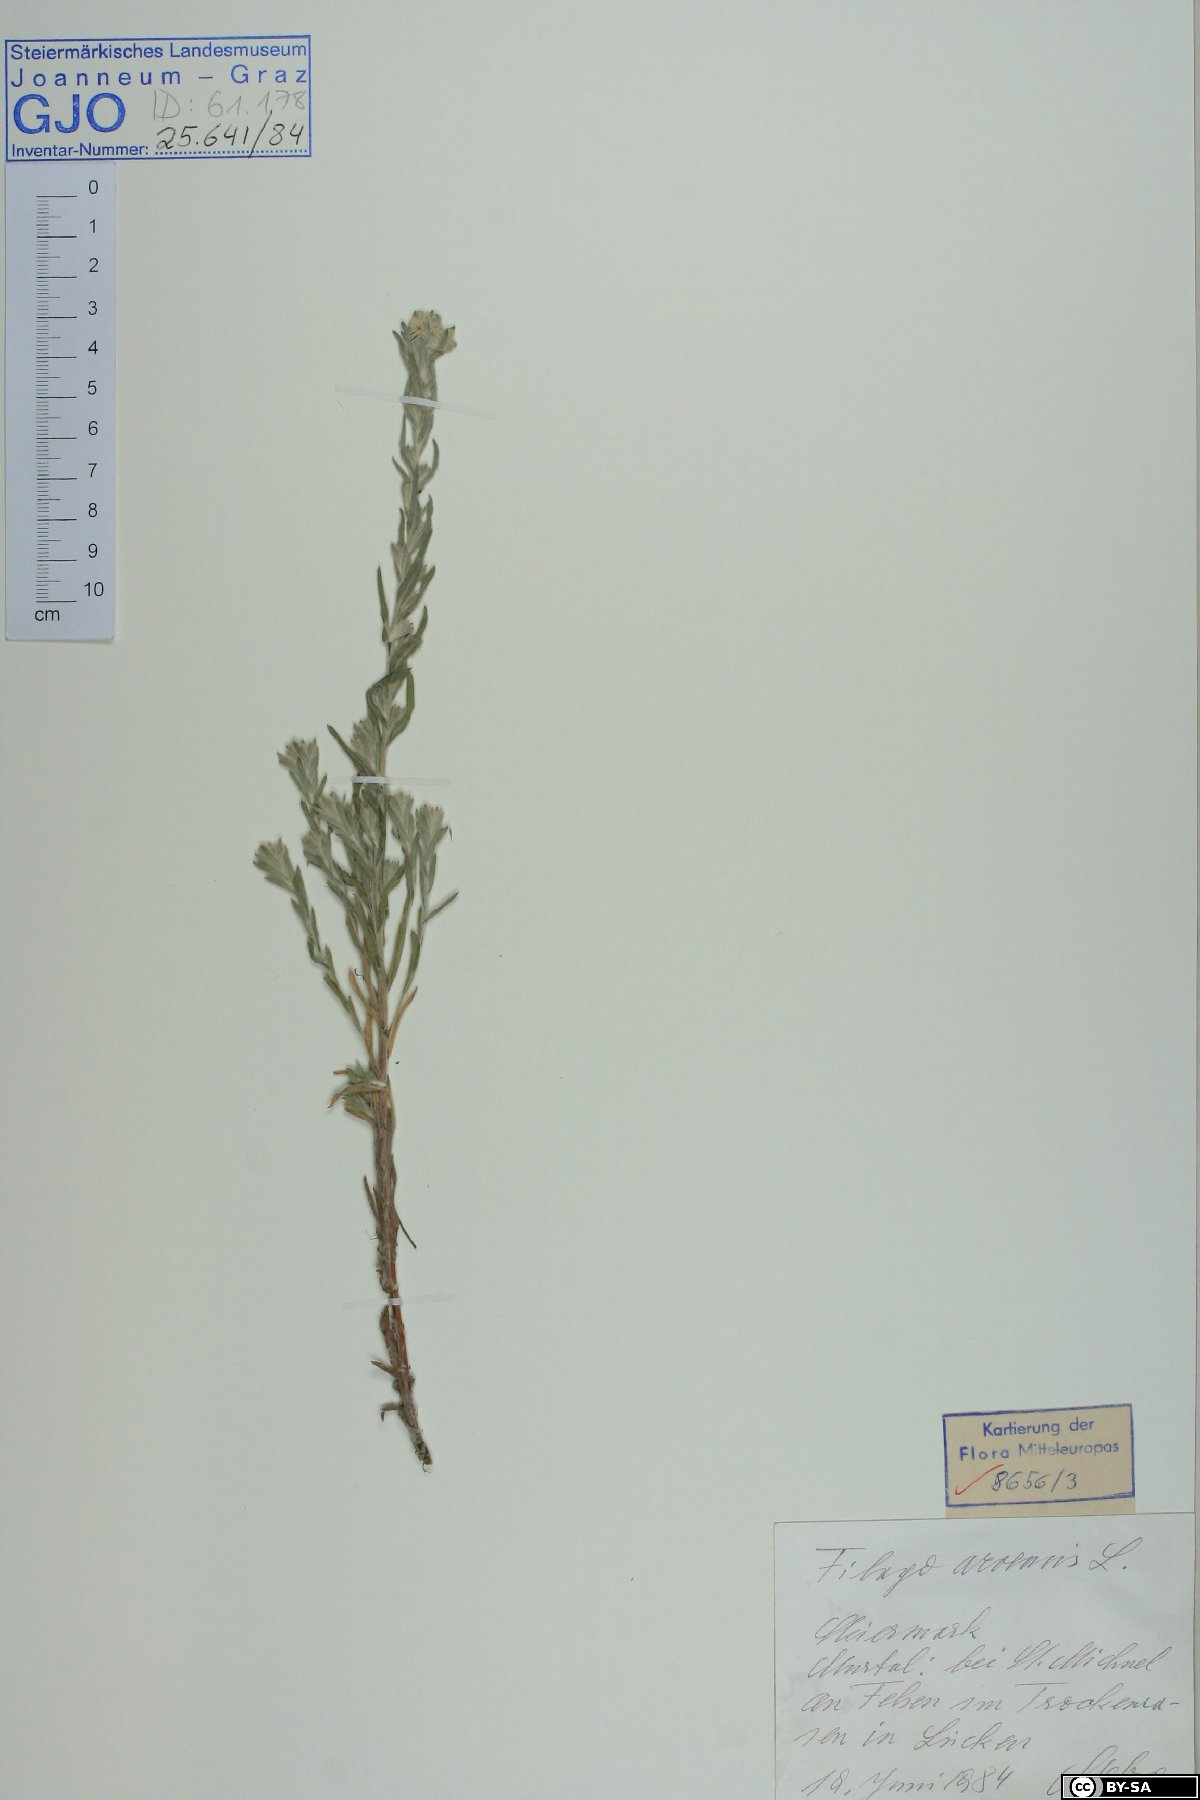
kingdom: Plantae
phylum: Tracheophyta
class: Magnoliopsida
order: Asterales
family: Asteraceae
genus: Filago
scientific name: Filago arvensis
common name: Field cudweed
